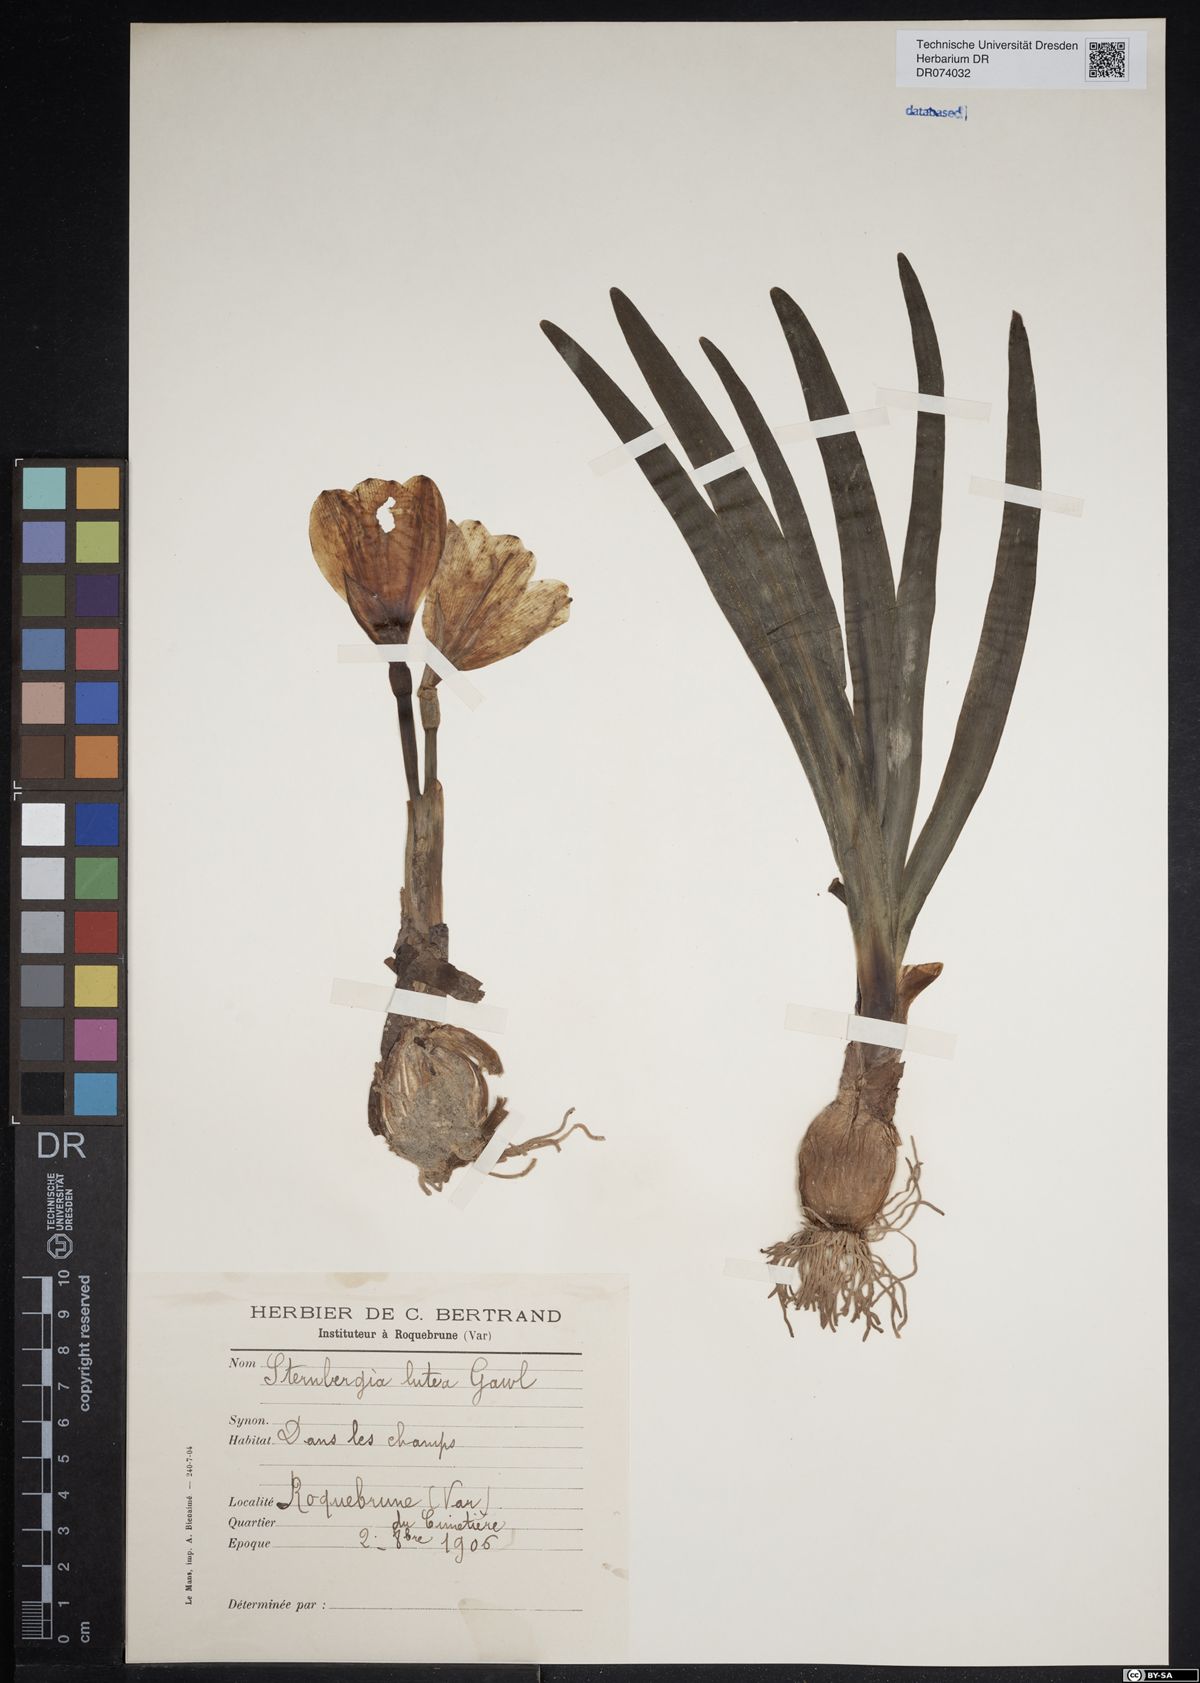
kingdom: Plantae
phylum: Tracheophyta
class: Liliopsida
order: Asparagales
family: Amaryllidaceae
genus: Sternbergia
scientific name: Sternbergia lutea
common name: Winter daffodil
